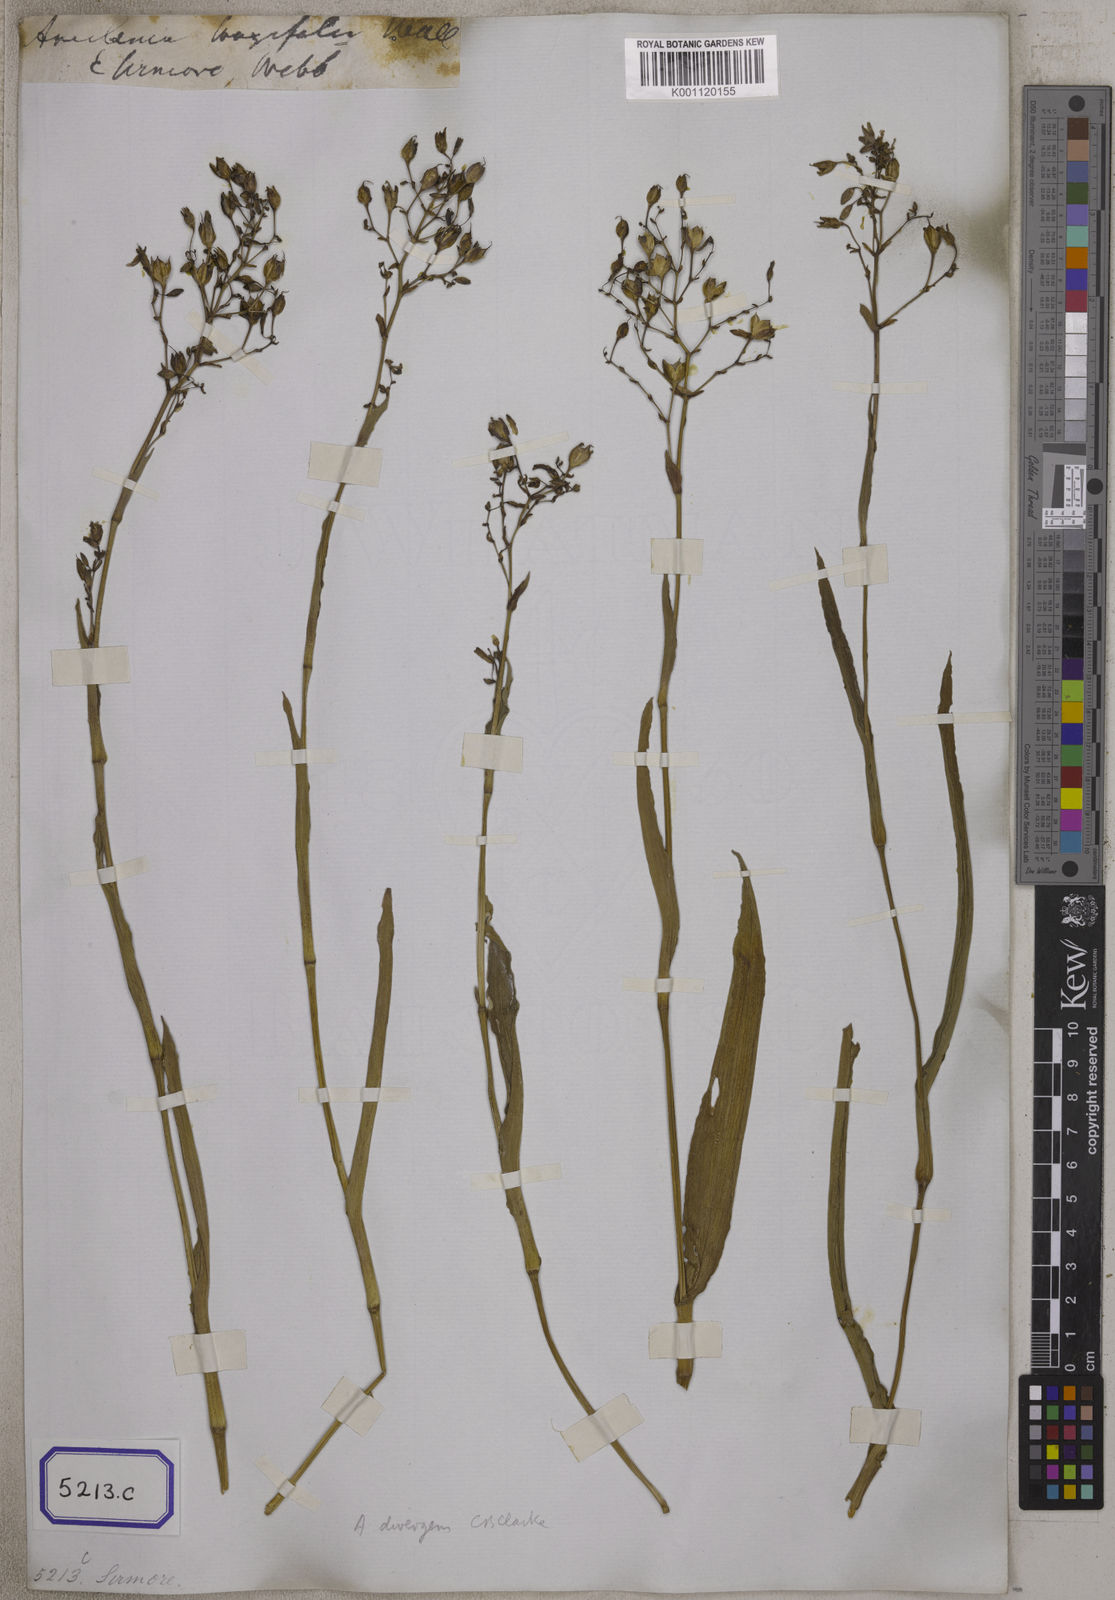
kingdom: Plantae
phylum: Tracheophyta
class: Liliopsida
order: Commelinales
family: Commelinaceae
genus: Aneilema
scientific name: Aneilema
